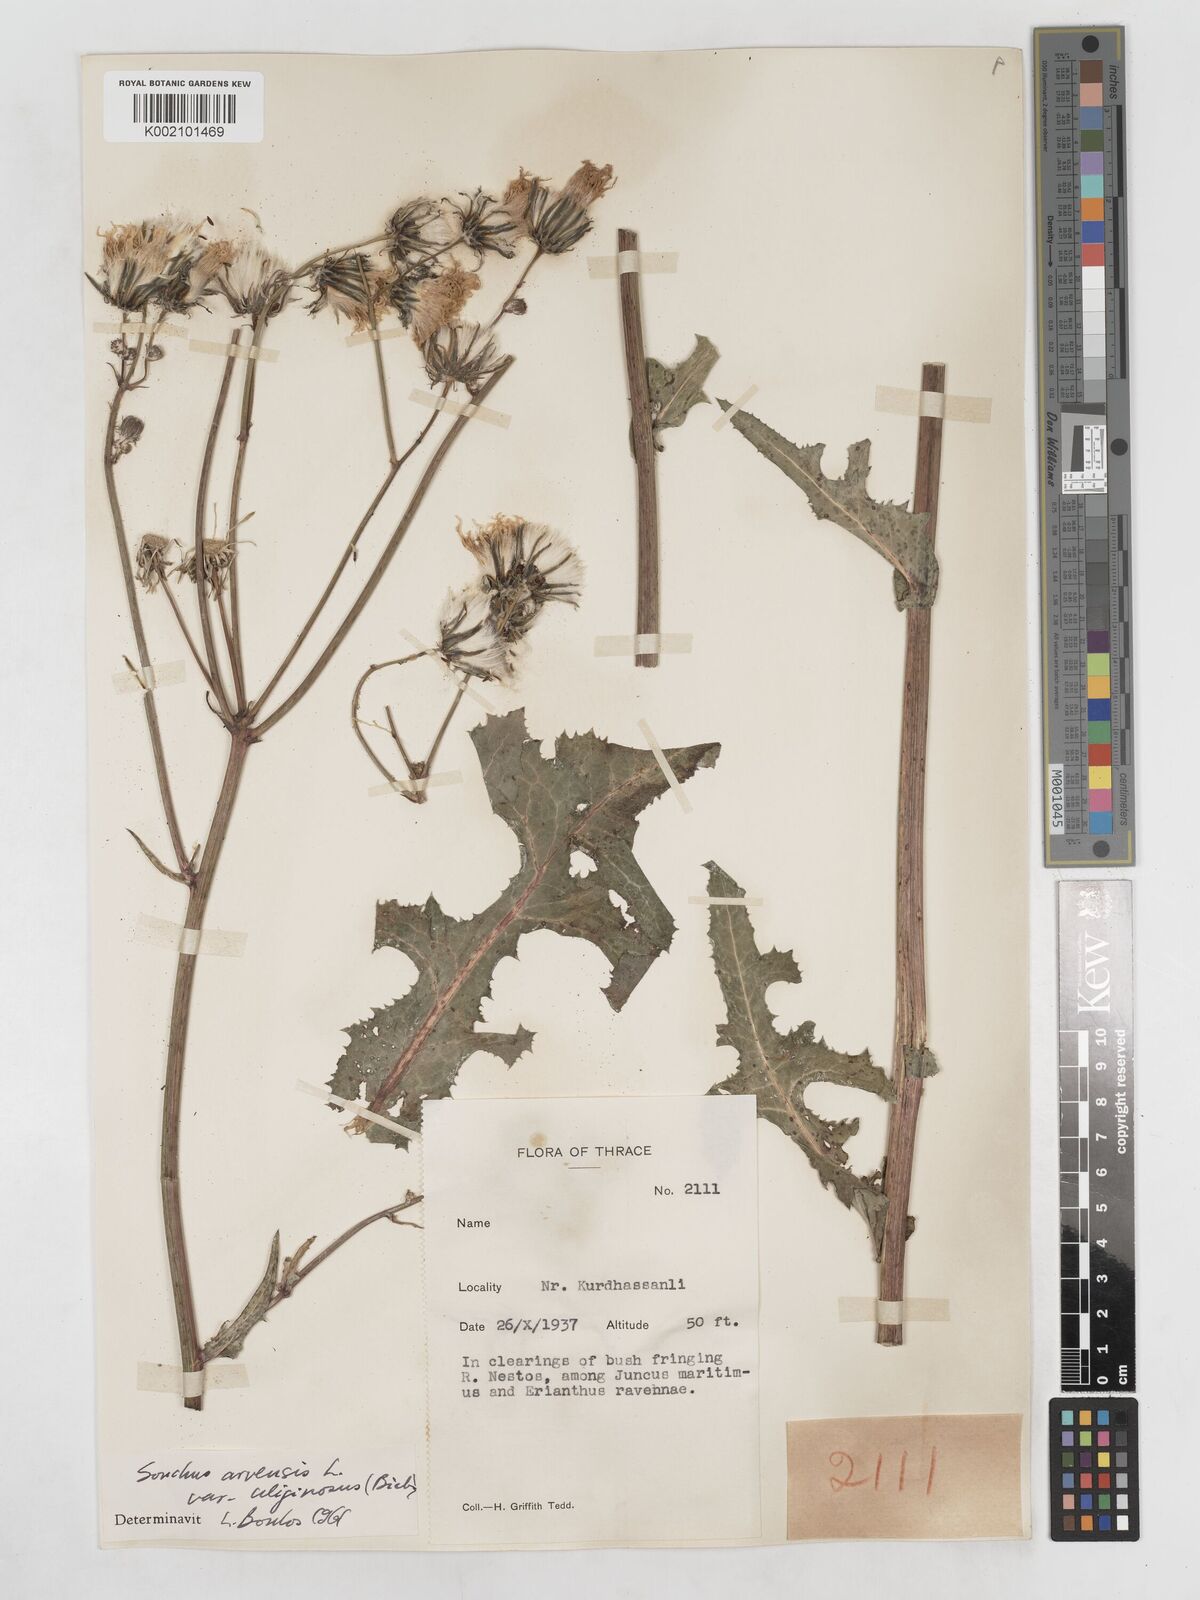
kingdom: Plantae
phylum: Tracheophyta
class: Magnoliopsida
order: Asterales
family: Asteraceae
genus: Sonchus
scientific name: Sonchus arvensis
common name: Perennial sow-thistle
